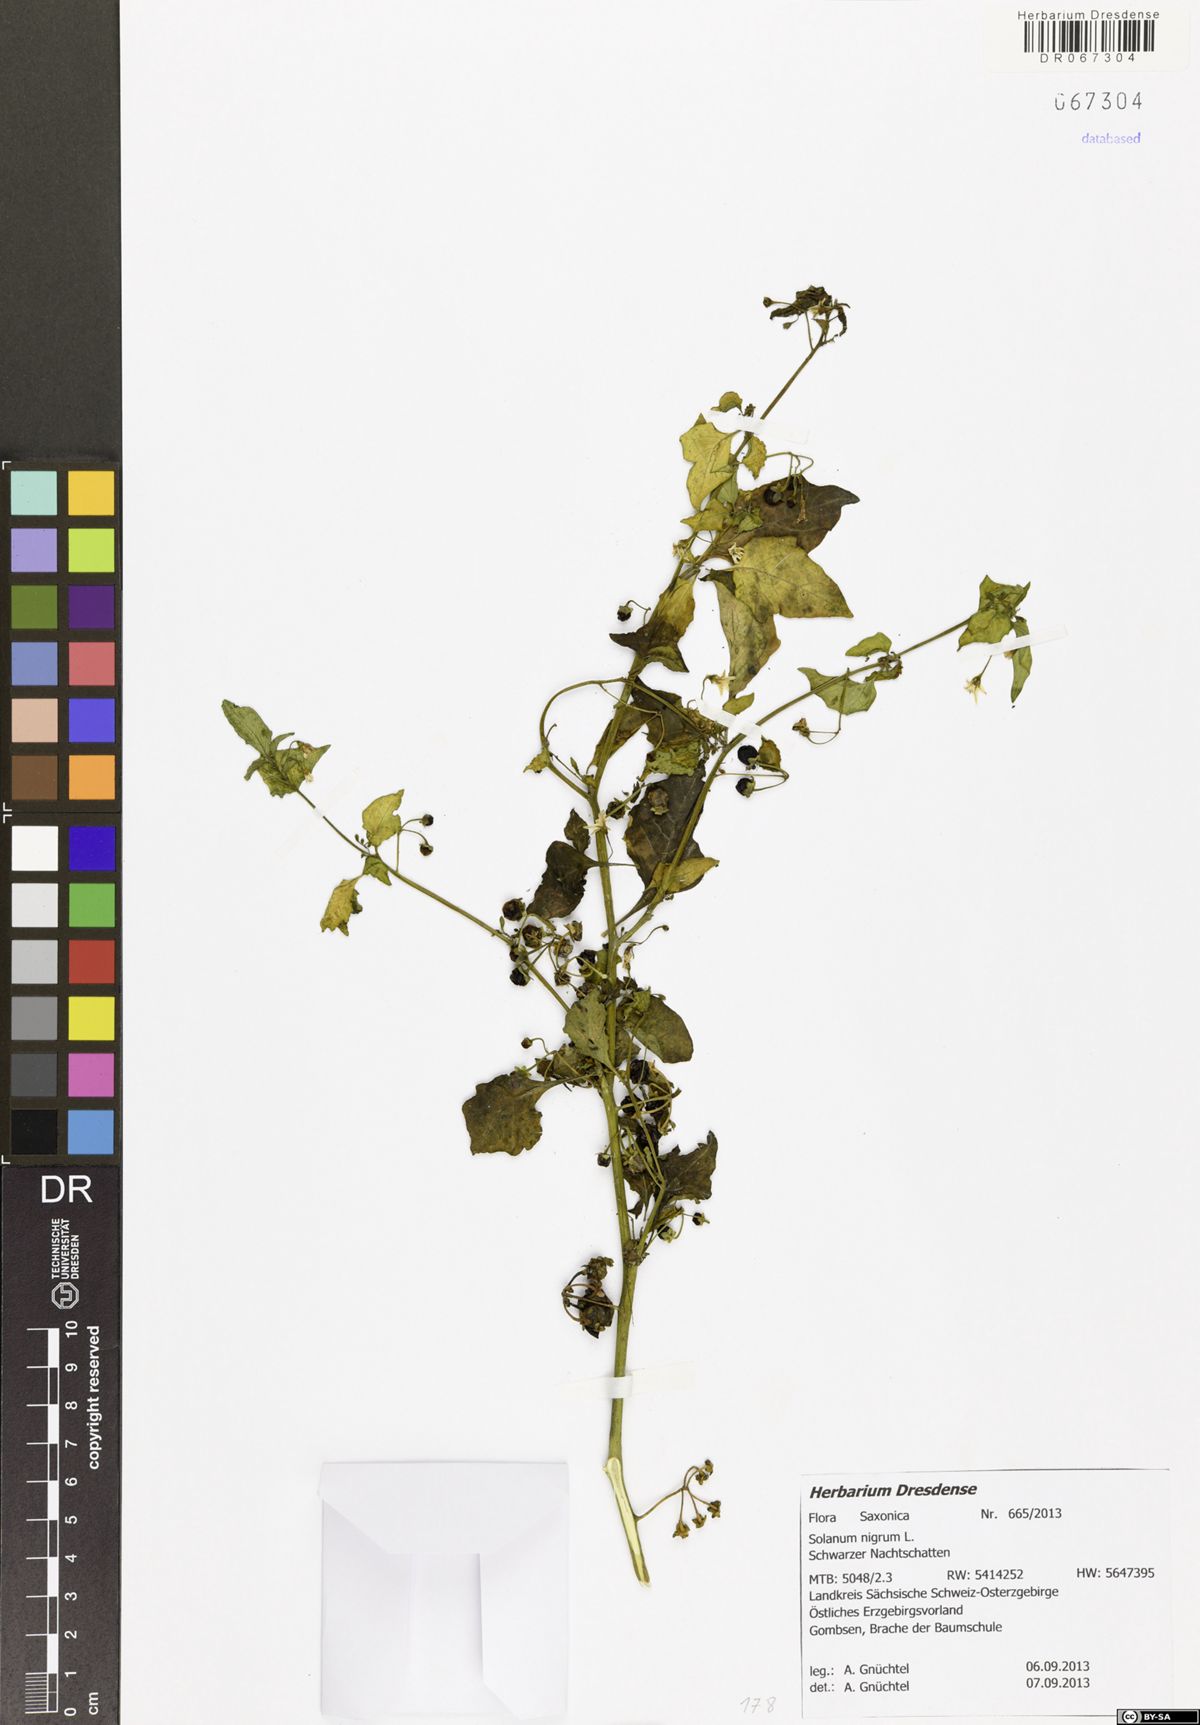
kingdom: Plantae
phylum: Tracheophyta
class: Magnoliopsida
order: Solanales
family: Solanaceae
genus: Solanum
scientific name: Solanum nigrum
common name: Black nightshade
